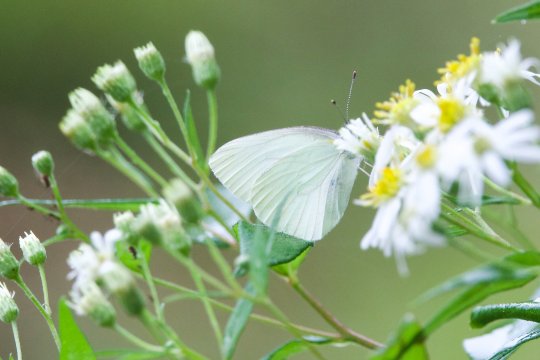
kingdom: Animalia
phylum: Arthropoda
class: Insecta
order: Lepidoptera
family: Pieridae
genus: Pieris
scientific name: Pieris oleracea
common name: Mustard White
